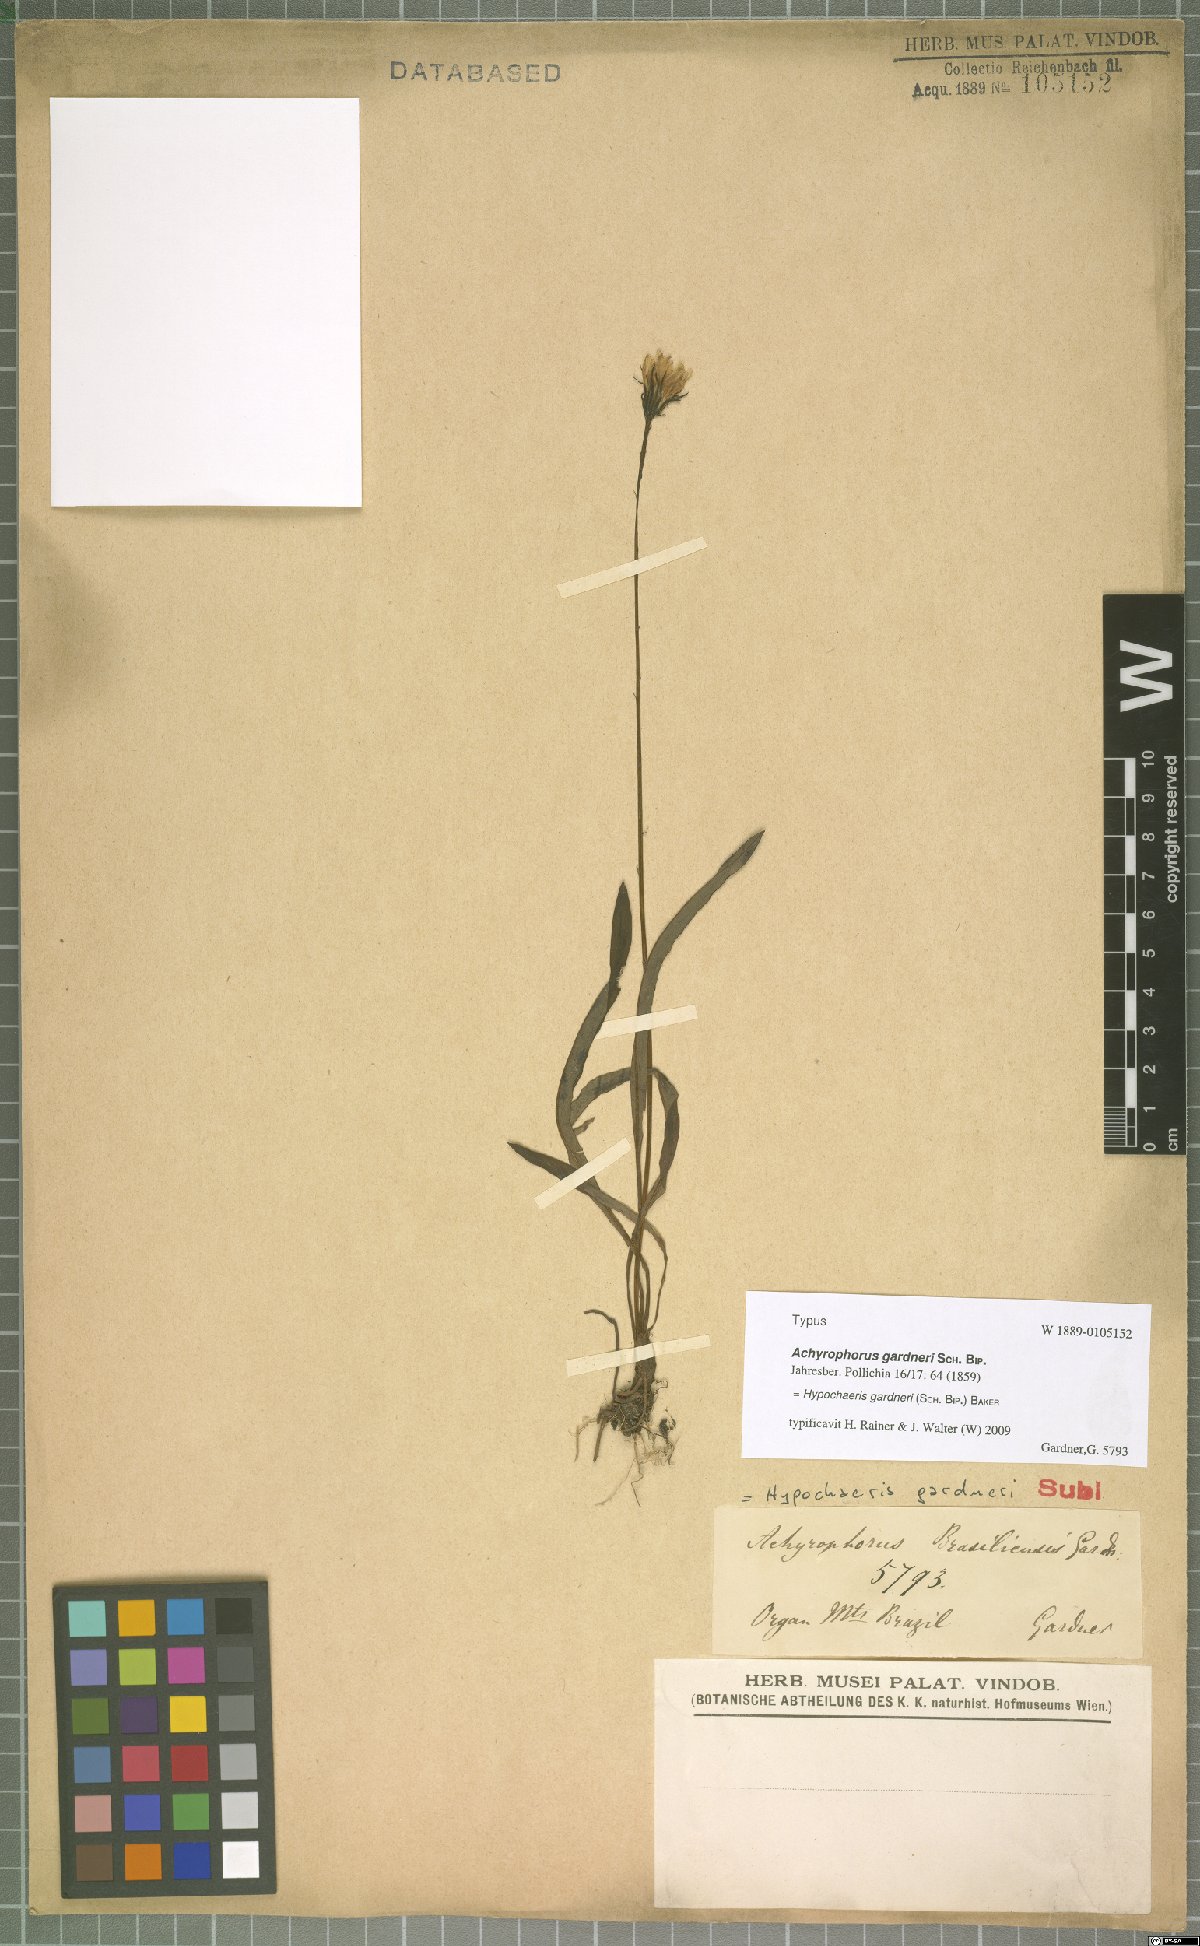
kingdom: Plantae
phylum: Tracheophyta
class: Magnoliopsida
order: Asterales
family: Asteraceae
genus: Hypochaeris
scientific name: Hypochaeris lutea
